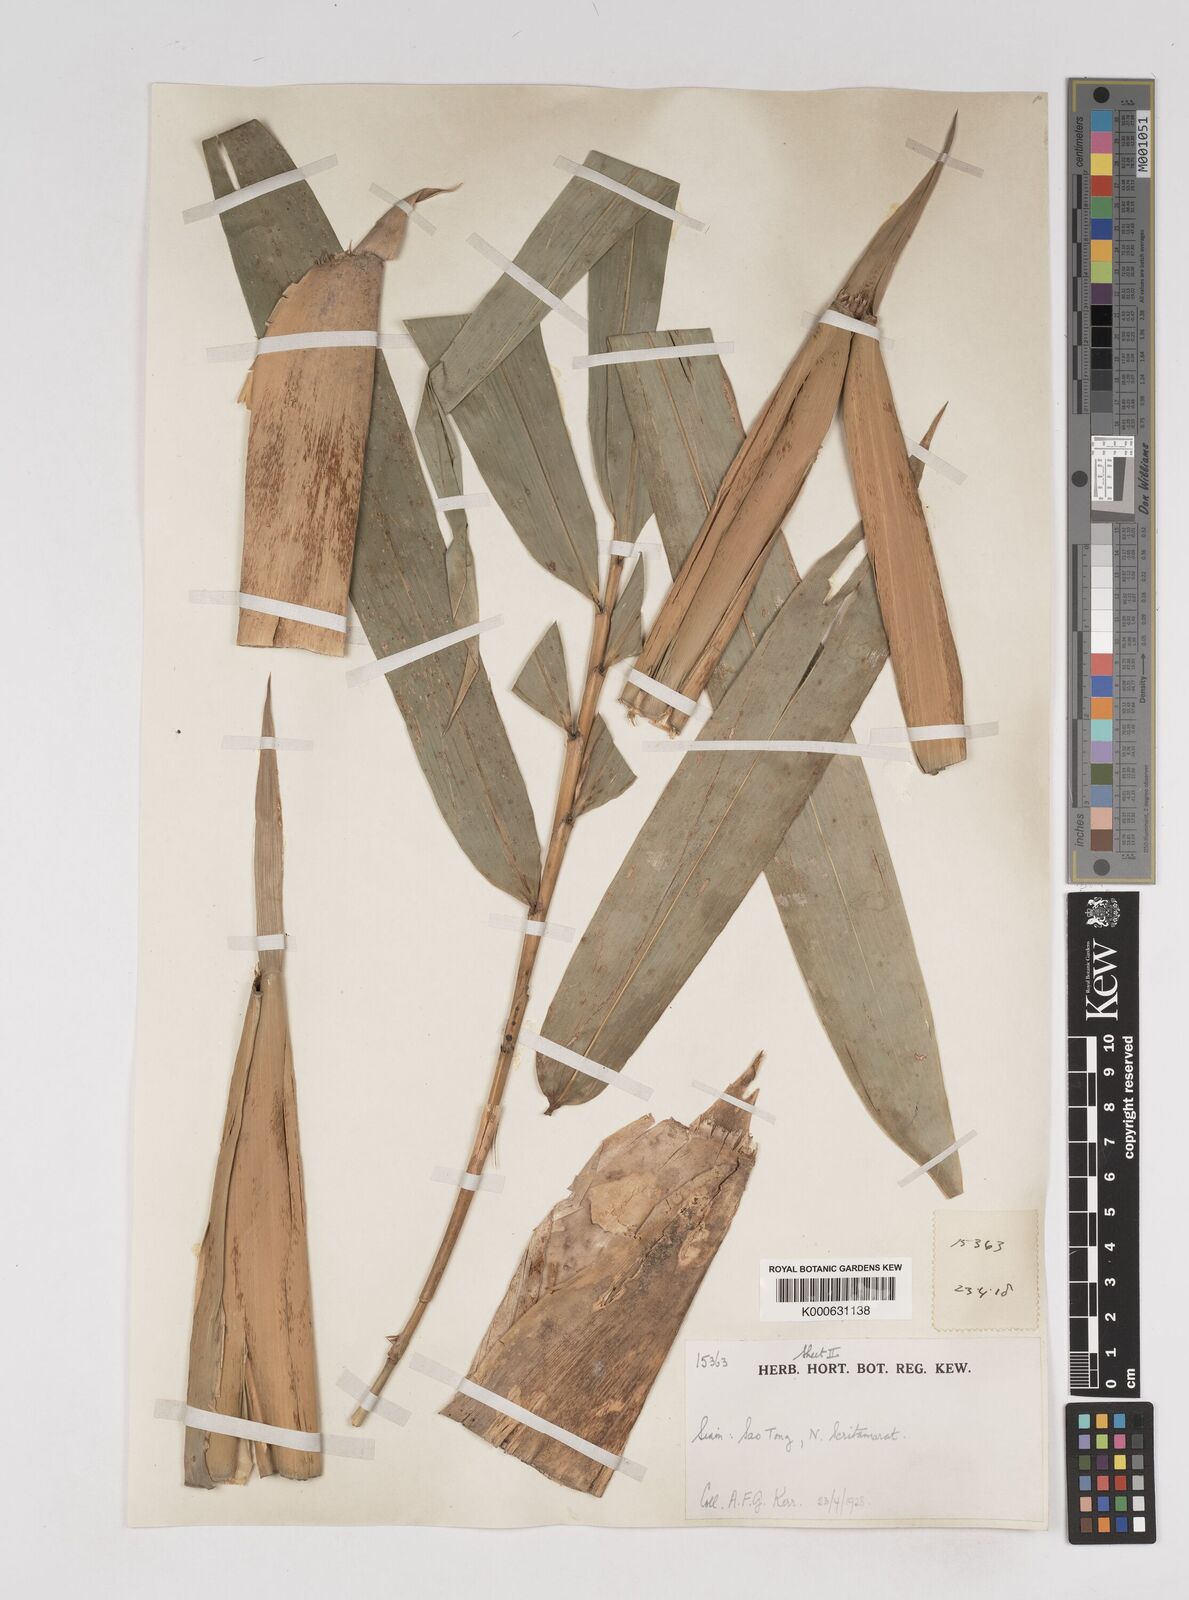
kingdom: Plantae
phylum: Tracheophyta
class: Liliopsida
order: Poales
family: Poaceae
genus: Gigantochloa
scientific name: Gigantochloa
